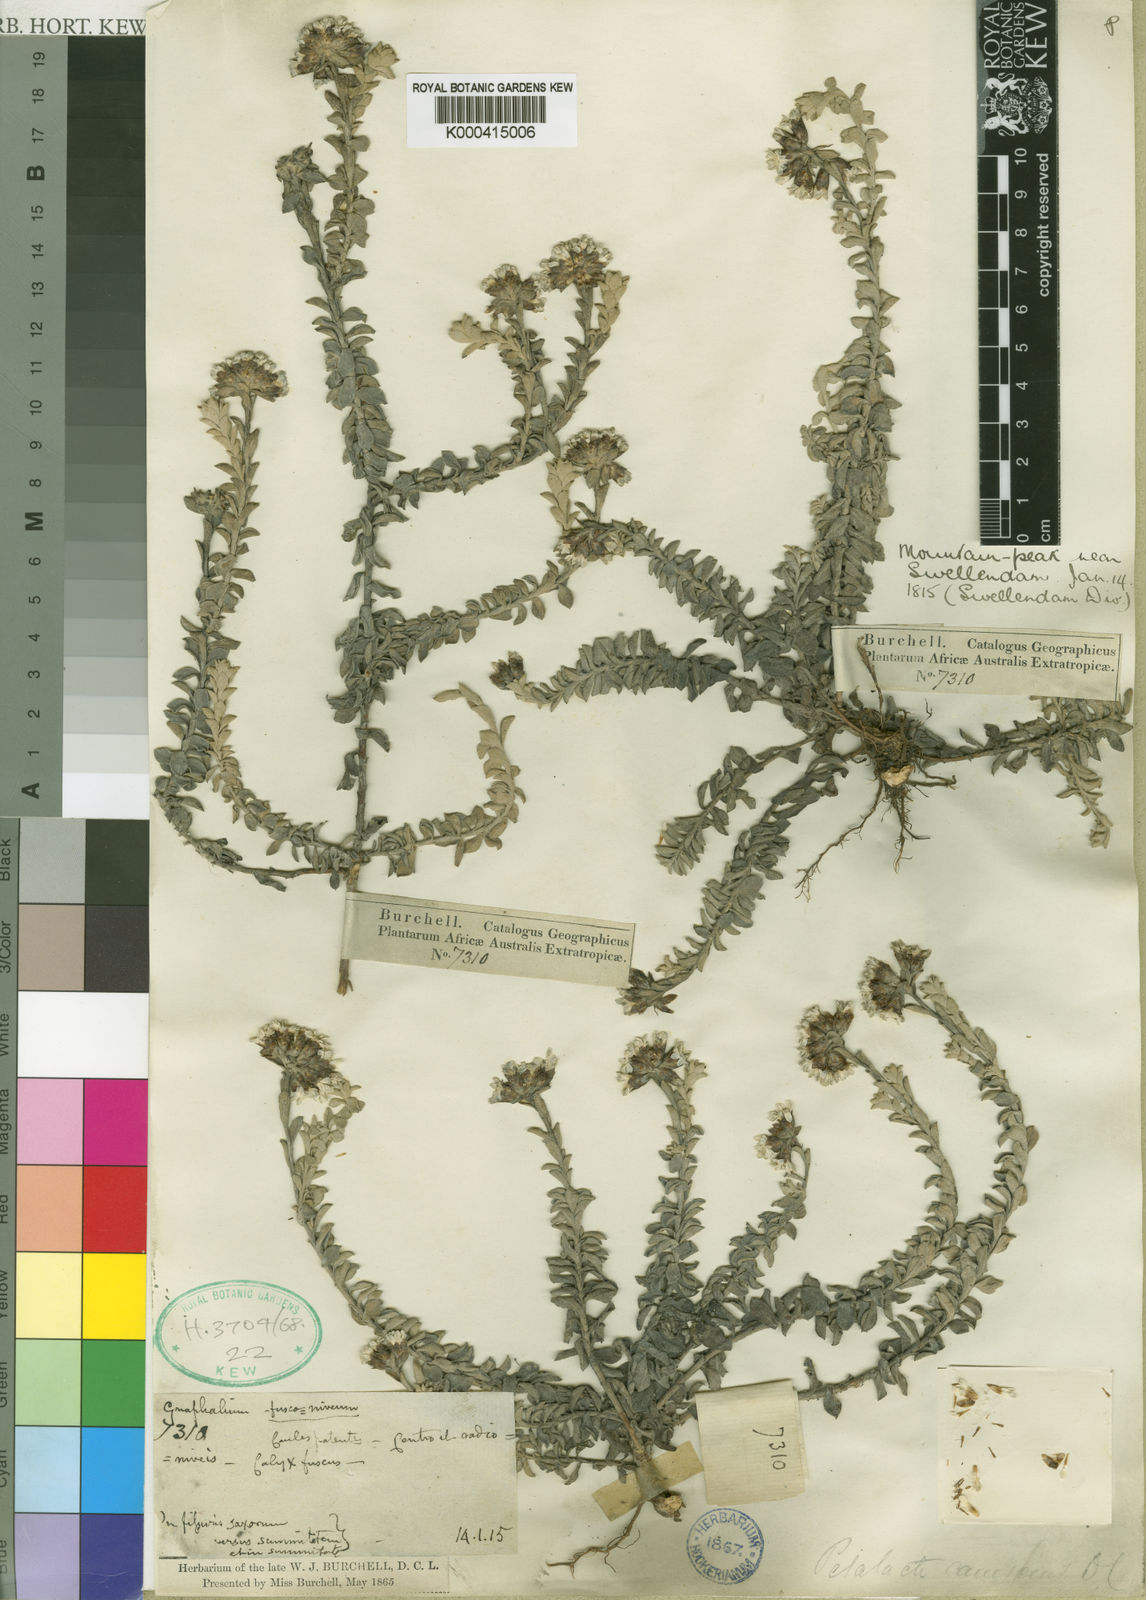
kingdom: Plantae
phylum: Tracheophyta
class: Magnoliopsida
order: Asterales
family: Asteraceae
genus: Langebergia
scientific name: Langebergia canescens
